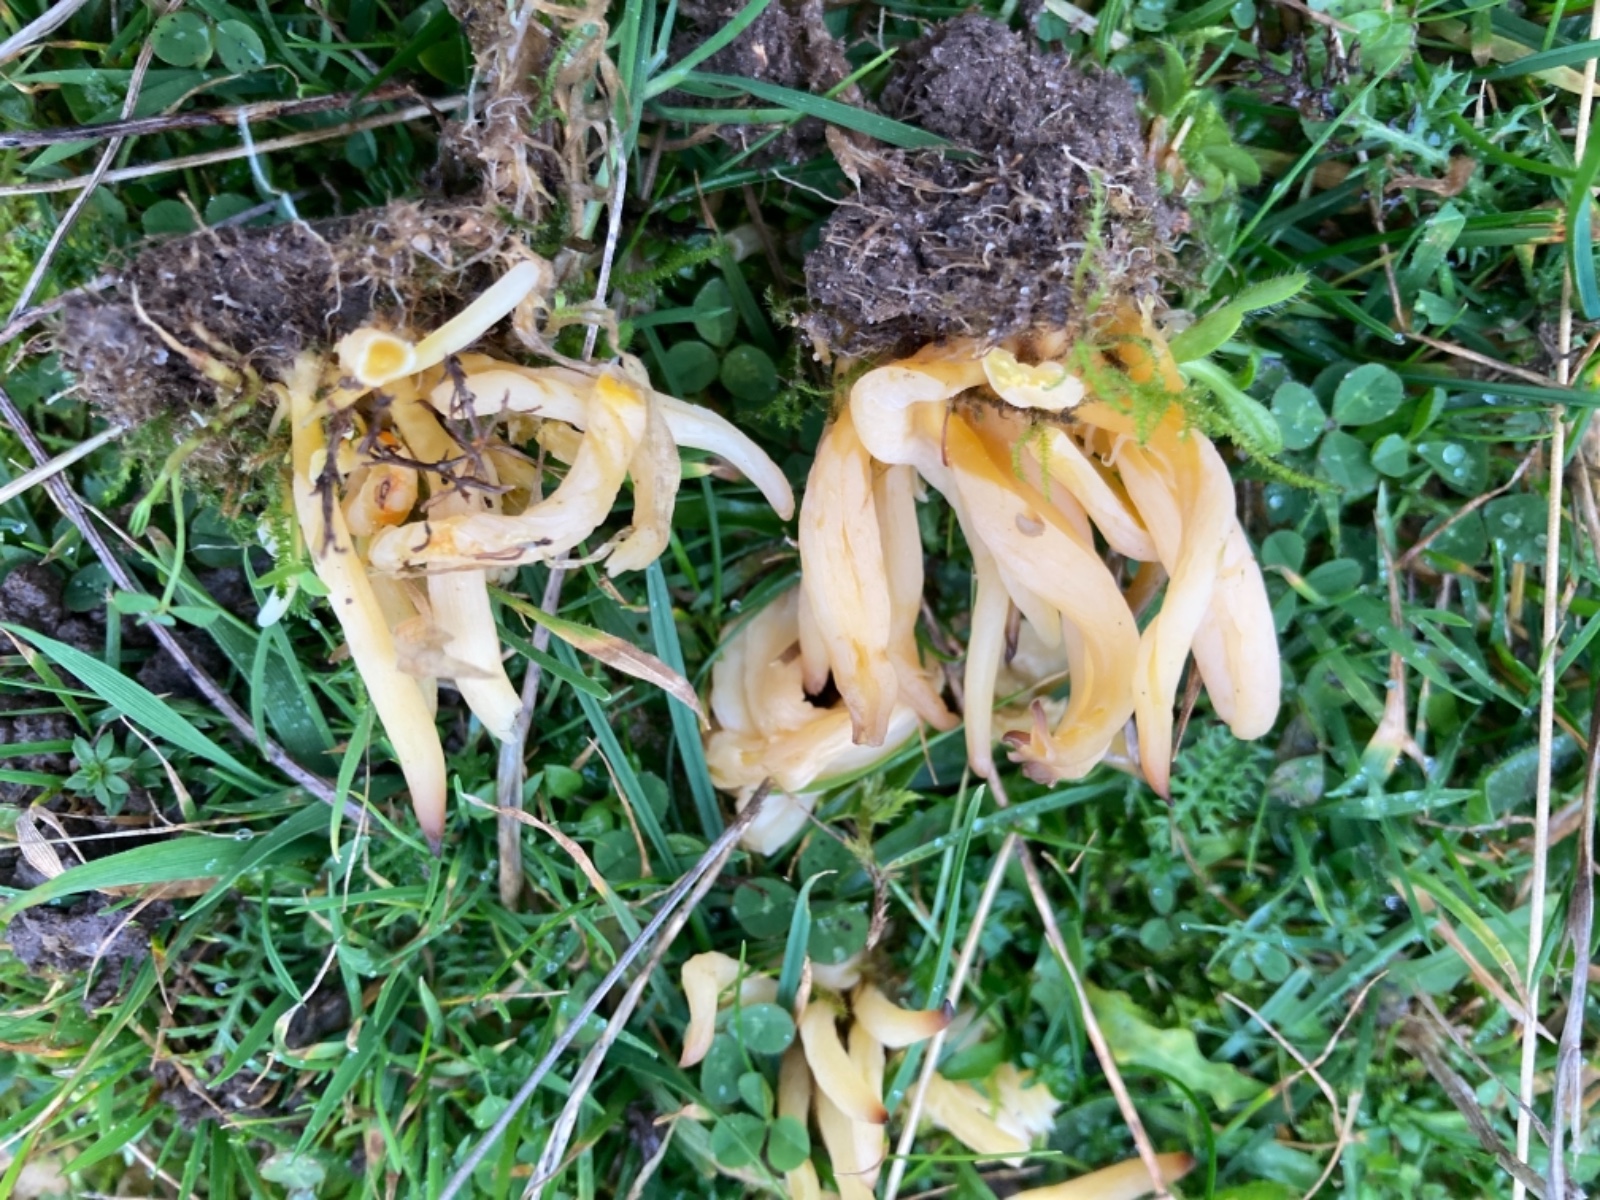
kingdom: Fungi
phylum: Basidiomycota
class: Agaricomycetes
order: Agaricales
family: Clavariaceae
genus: Clavaria
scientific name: Clavaria flavipes
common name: strågul køllesvamp
